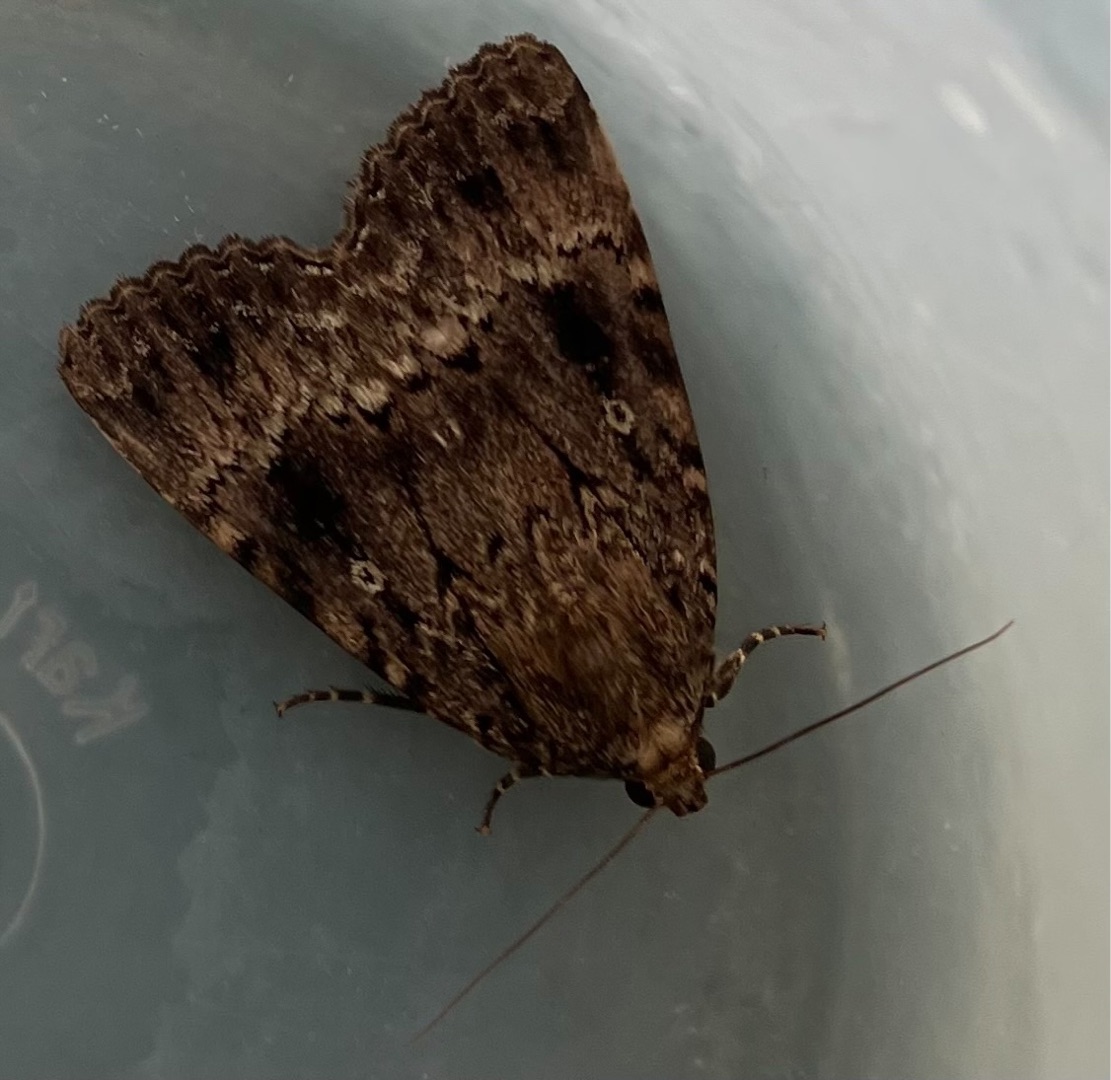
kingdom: Animalia
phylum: Arthropoda
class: Insecta
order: Lepidoptera
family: Noctuidae
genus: Amphipyra
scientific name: Amphipyra pyramidea
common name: Pyramideugle
